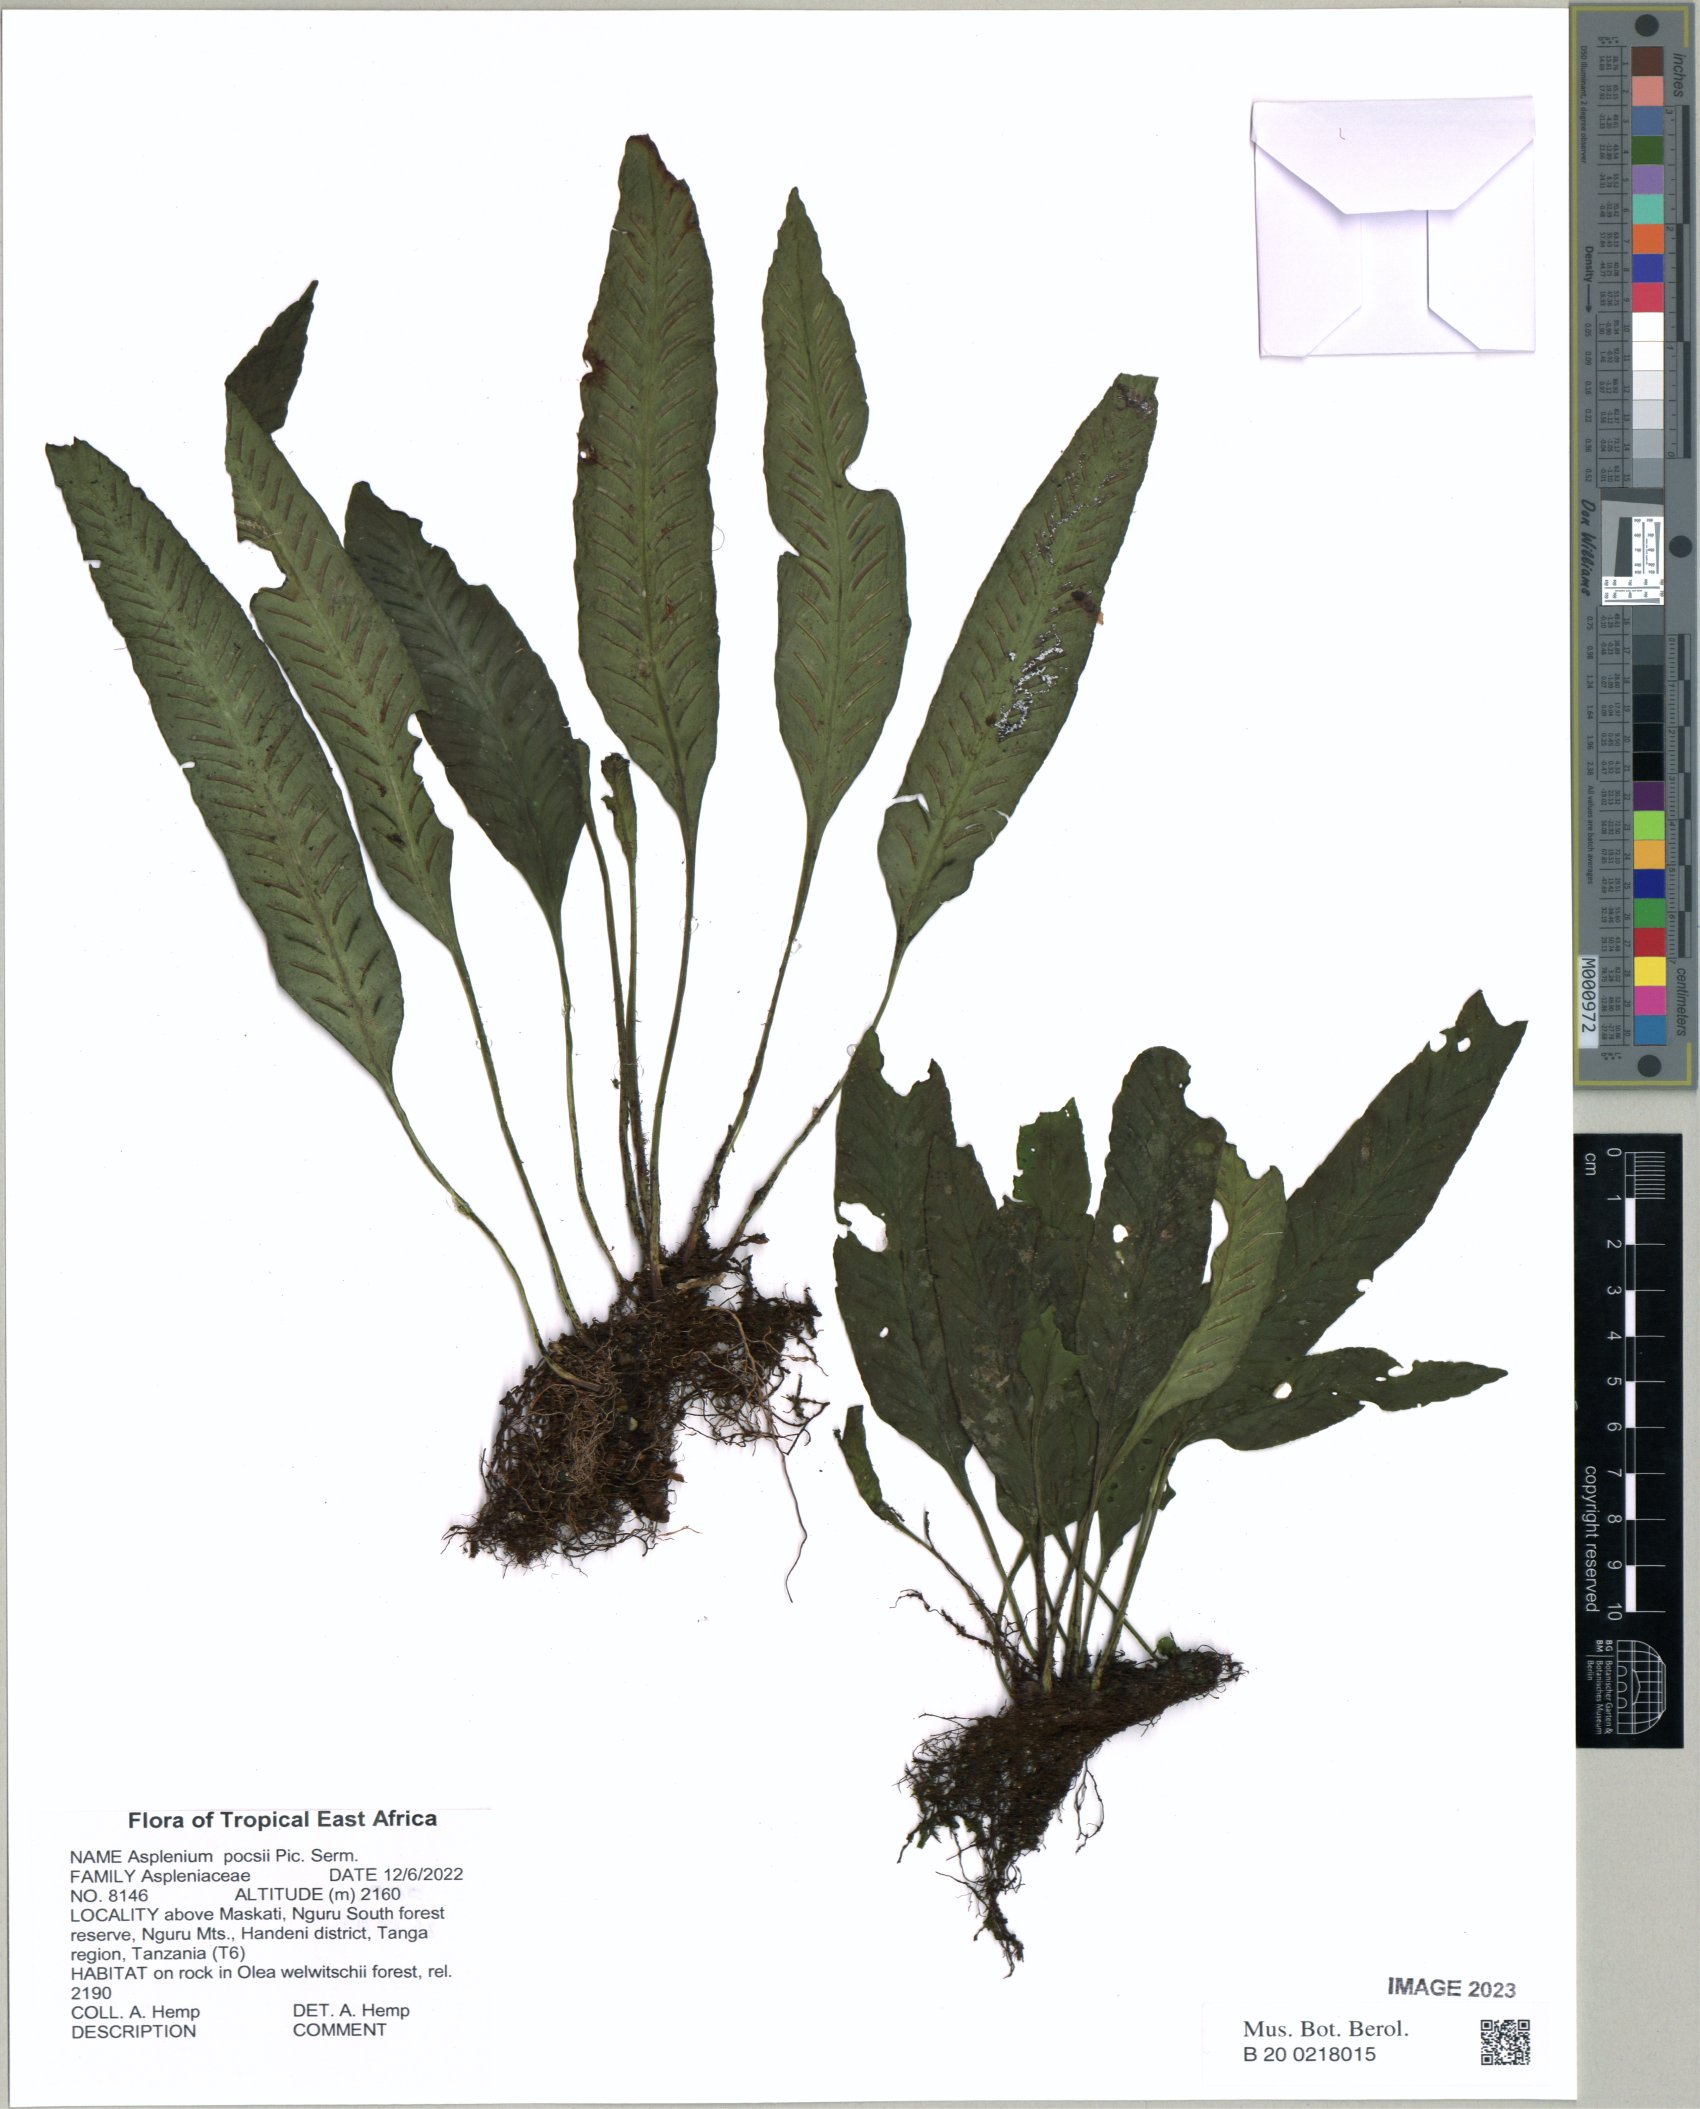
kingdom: Plantae
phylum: Tracheophyta
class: Polypodiopsida
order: Polypodiales
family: Aspleniaceae
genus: Asplenium
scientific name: Asplenium pocsii
